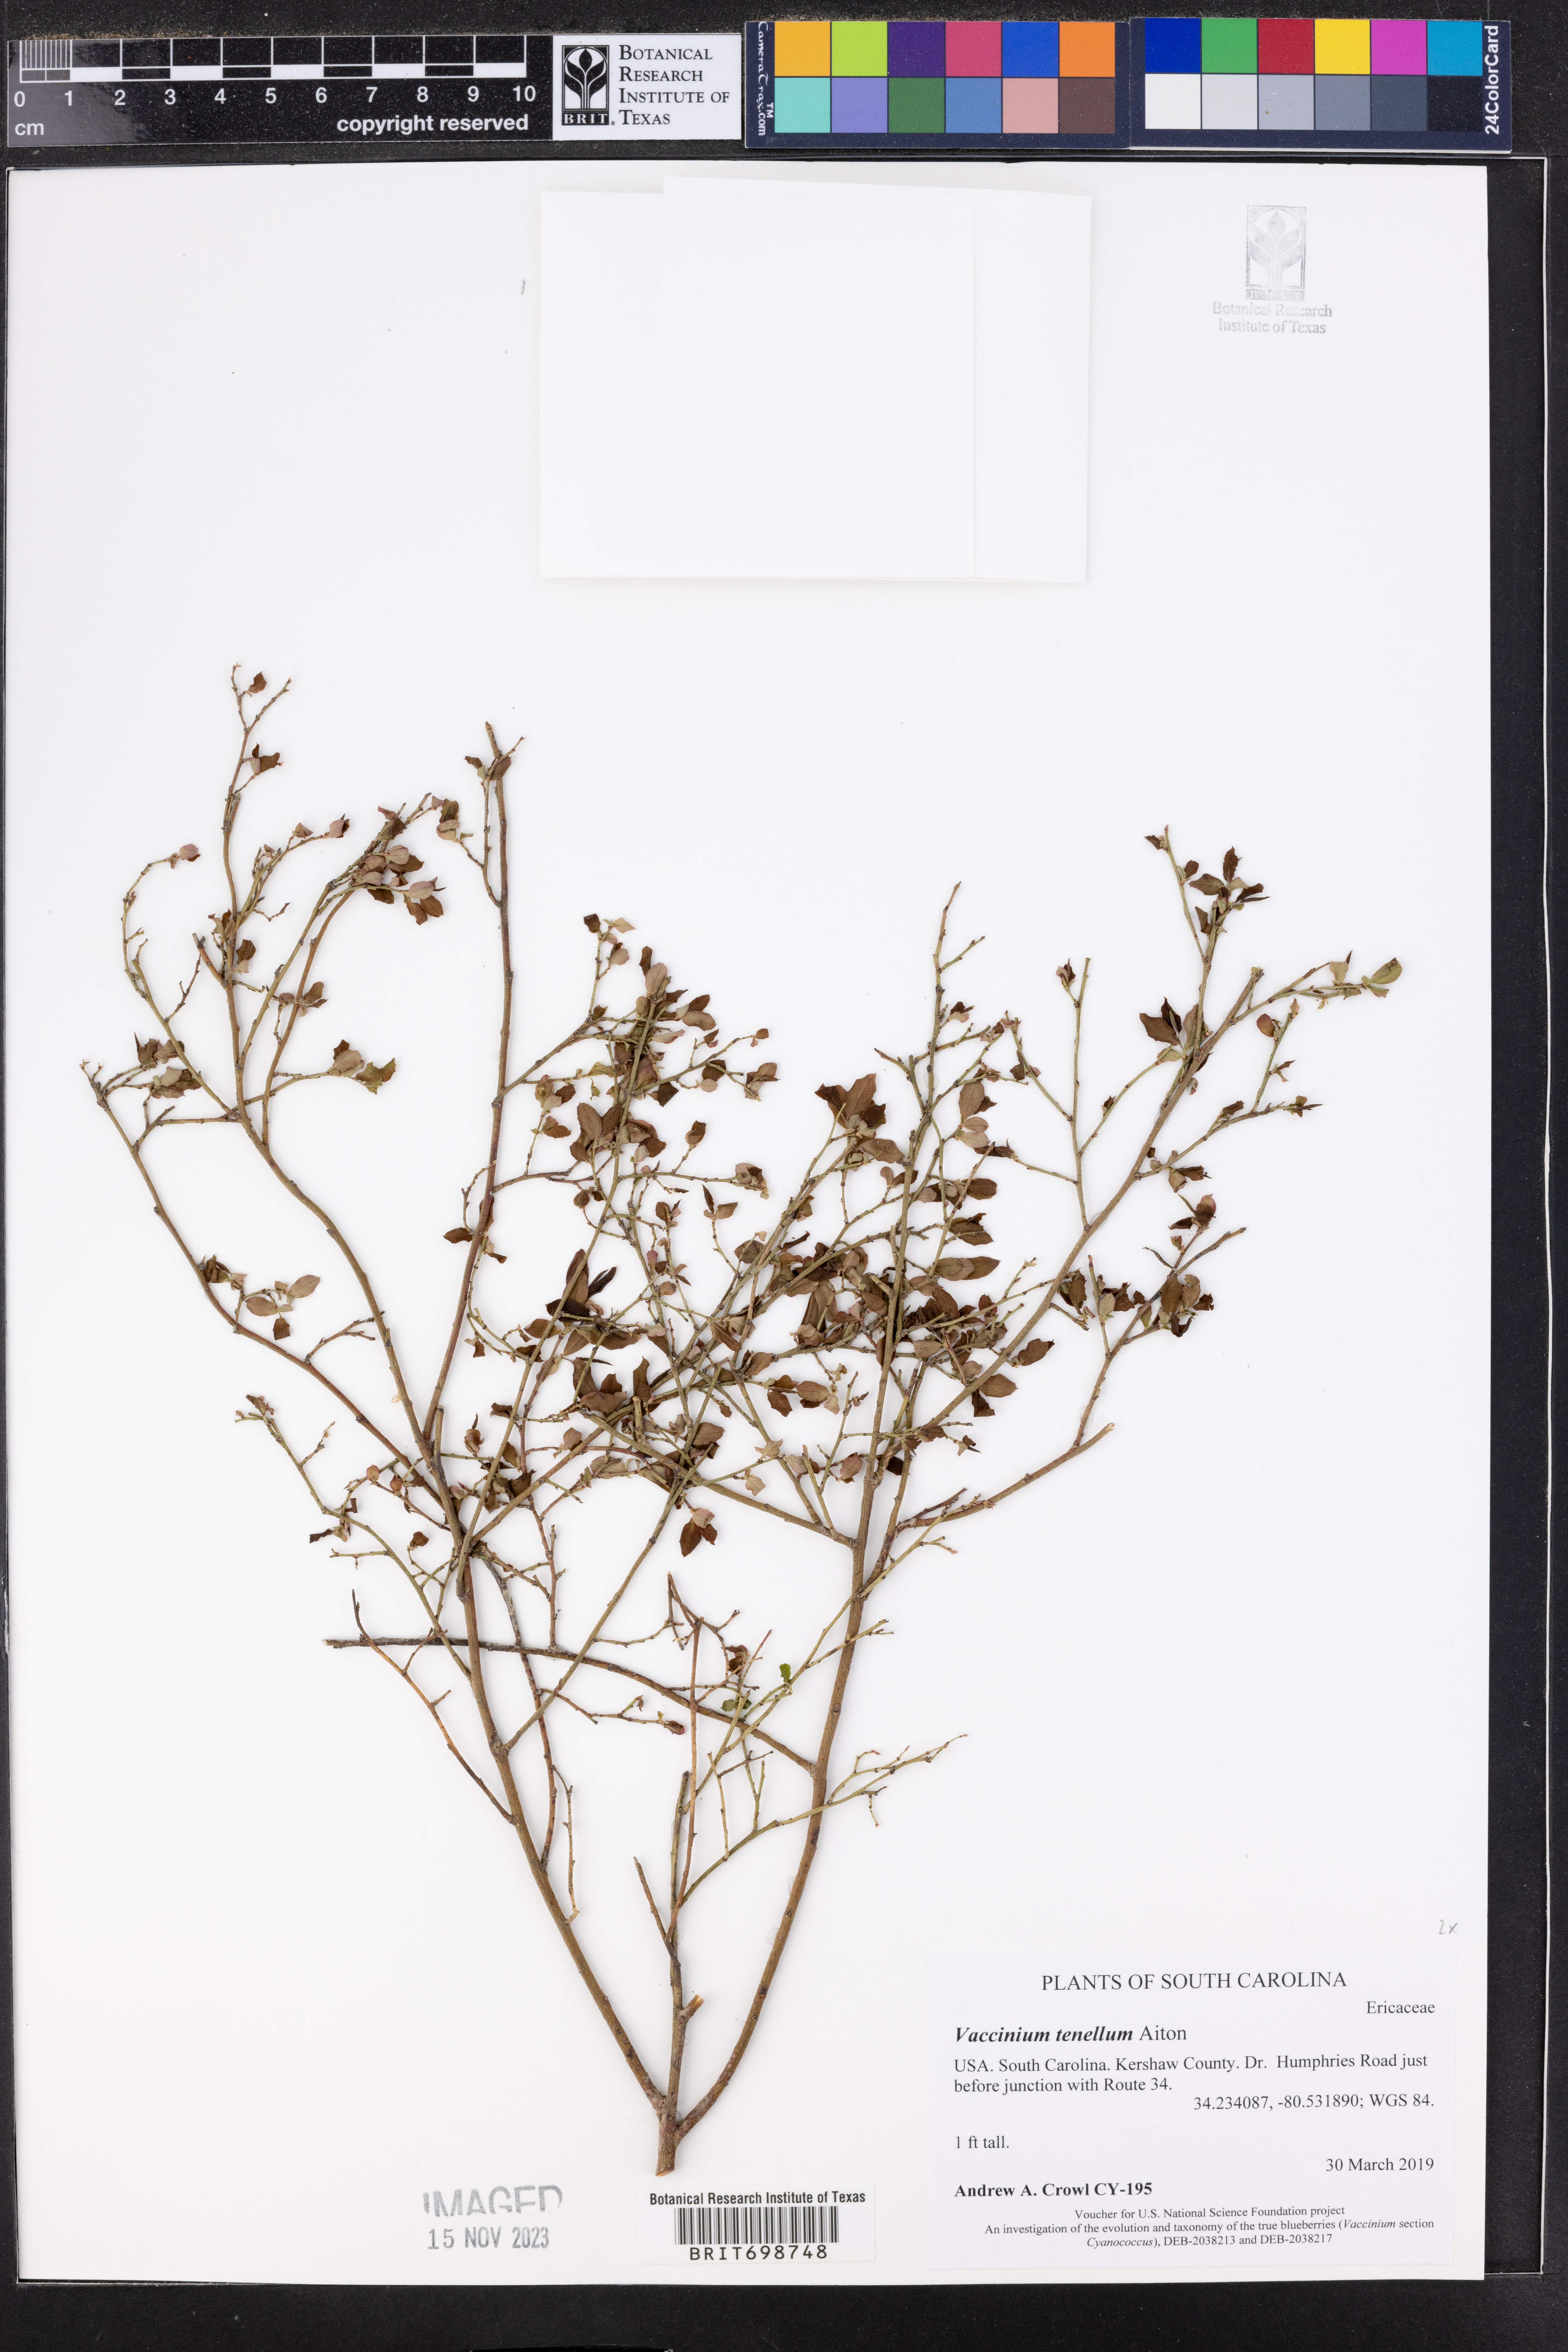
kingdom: Plantae
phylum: Tracheophyta
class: Magnoliopsida
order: Ericales
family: Ericaceae
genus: Vaccinium
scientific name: Vaccinium tenellum
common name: Southern blueberry
